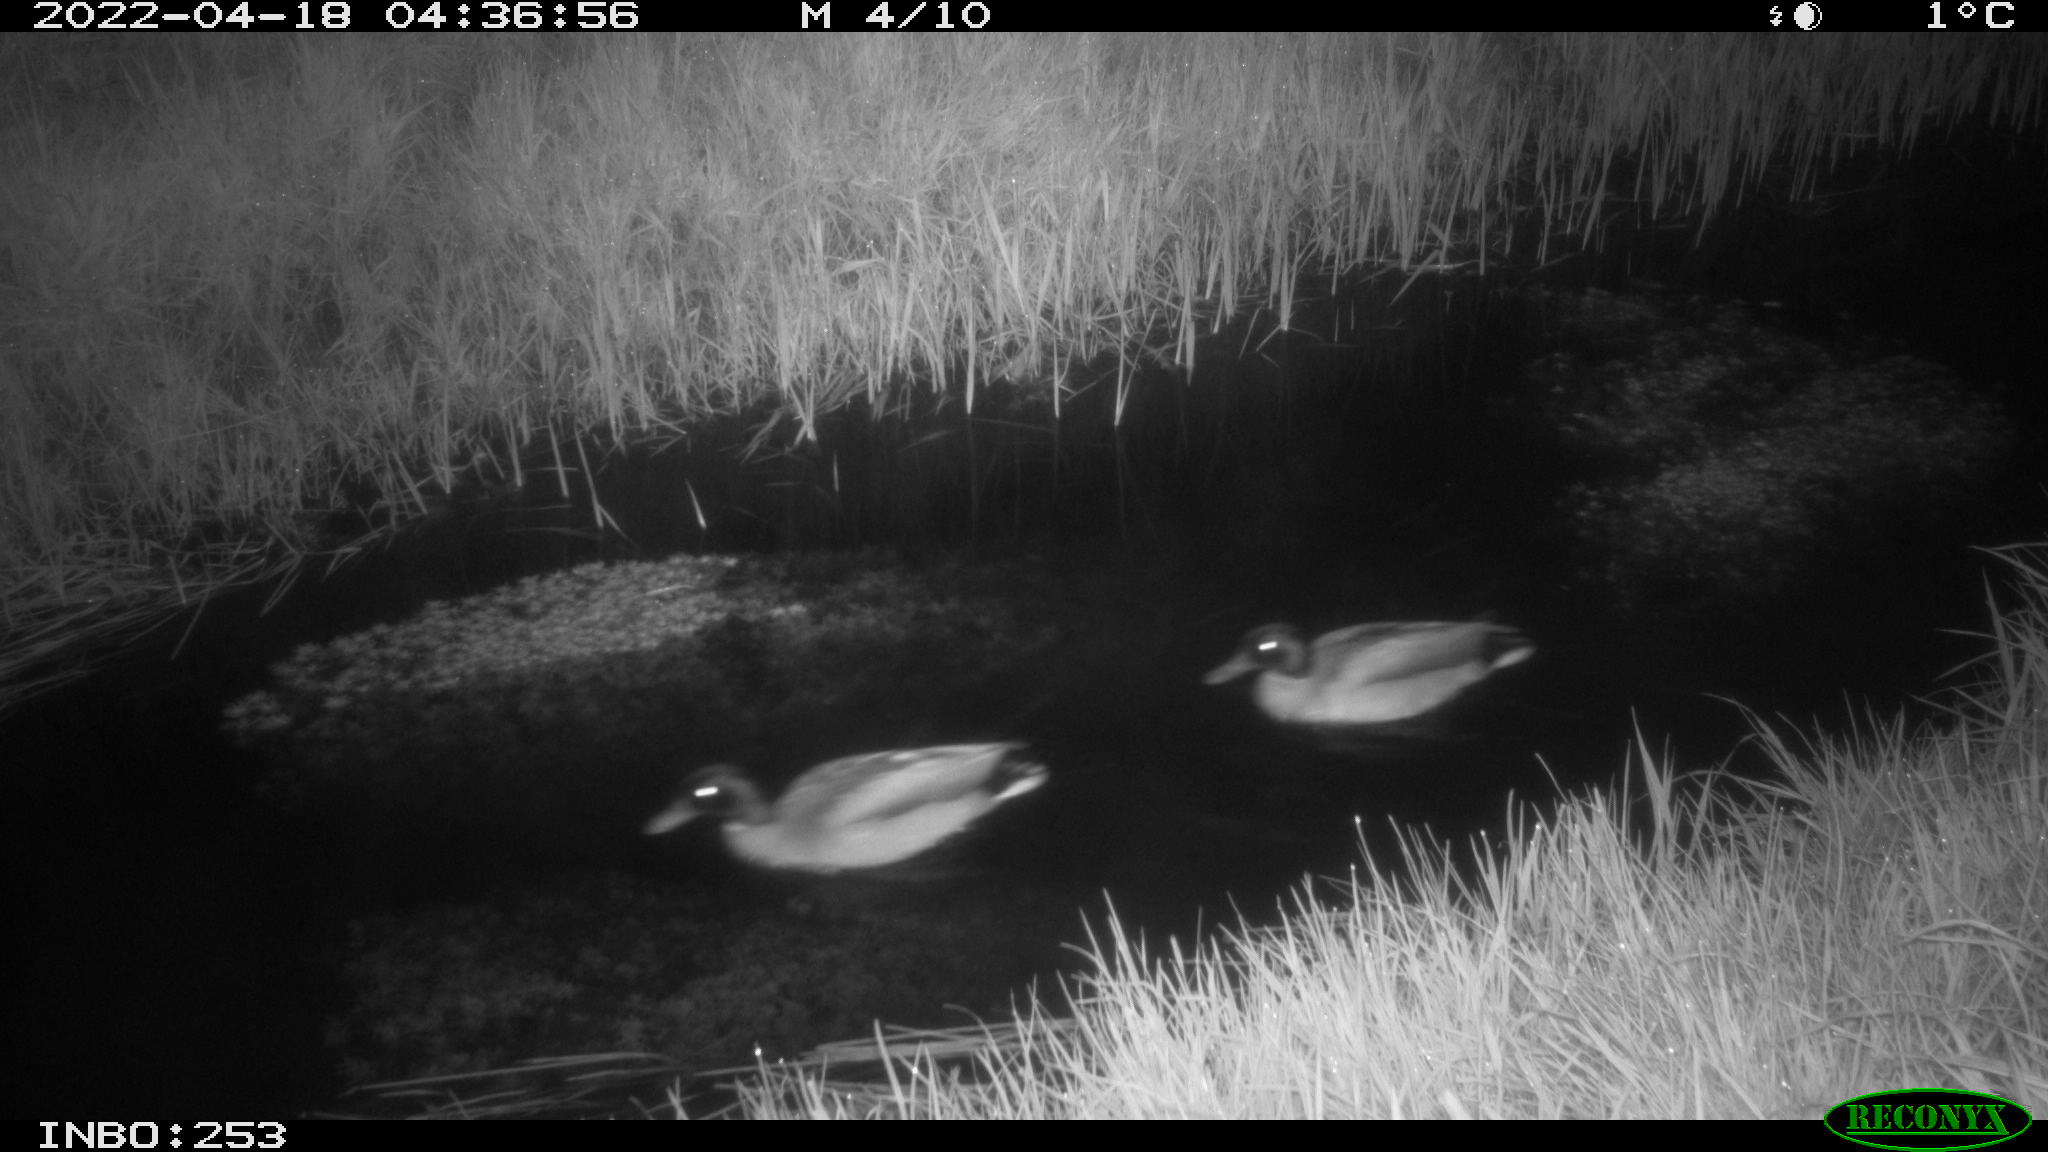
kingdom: Animalia
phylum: Chordata
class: Aves
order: Anseriformes
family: Anatidae
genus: Anas
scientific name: Anas platyrhynchos
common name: Mallard
